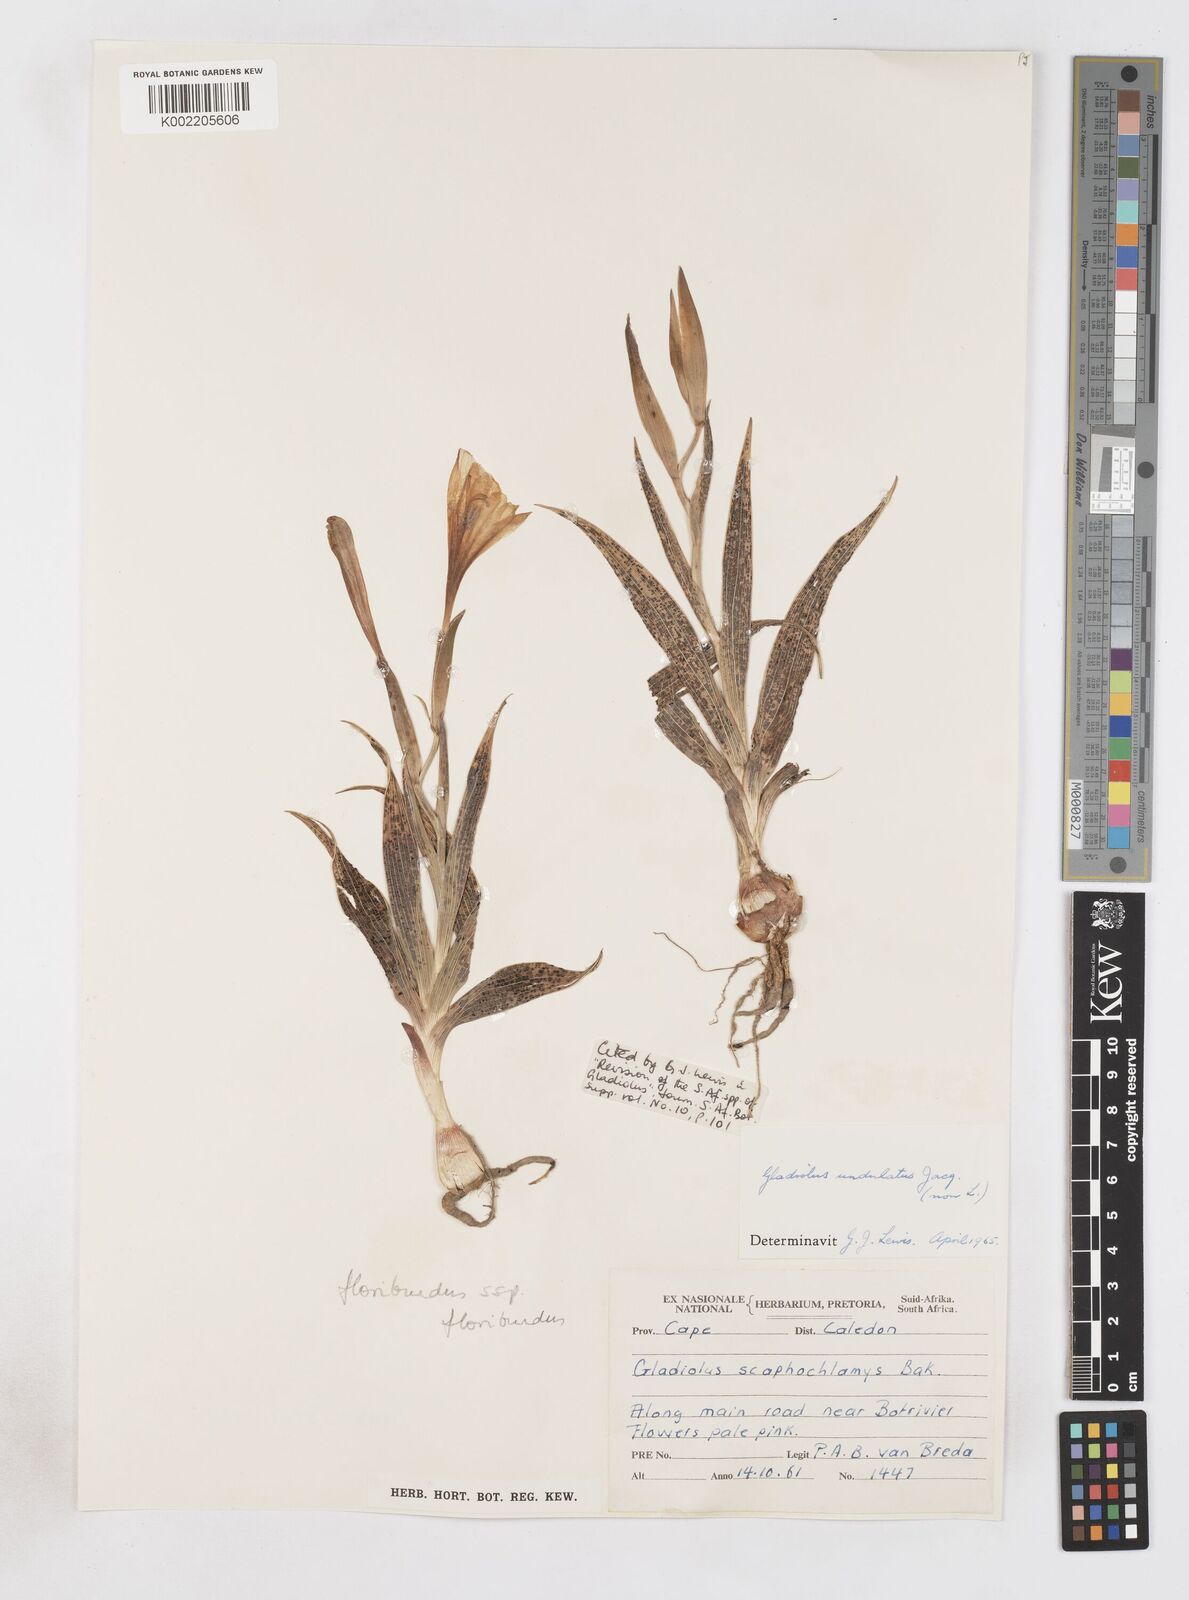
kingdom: Plantae
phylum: Tracheophyta
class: Liliopsida
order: Asparagales
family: Iridaceae
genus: Gladiolus
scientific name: Gladiolus floribundus
